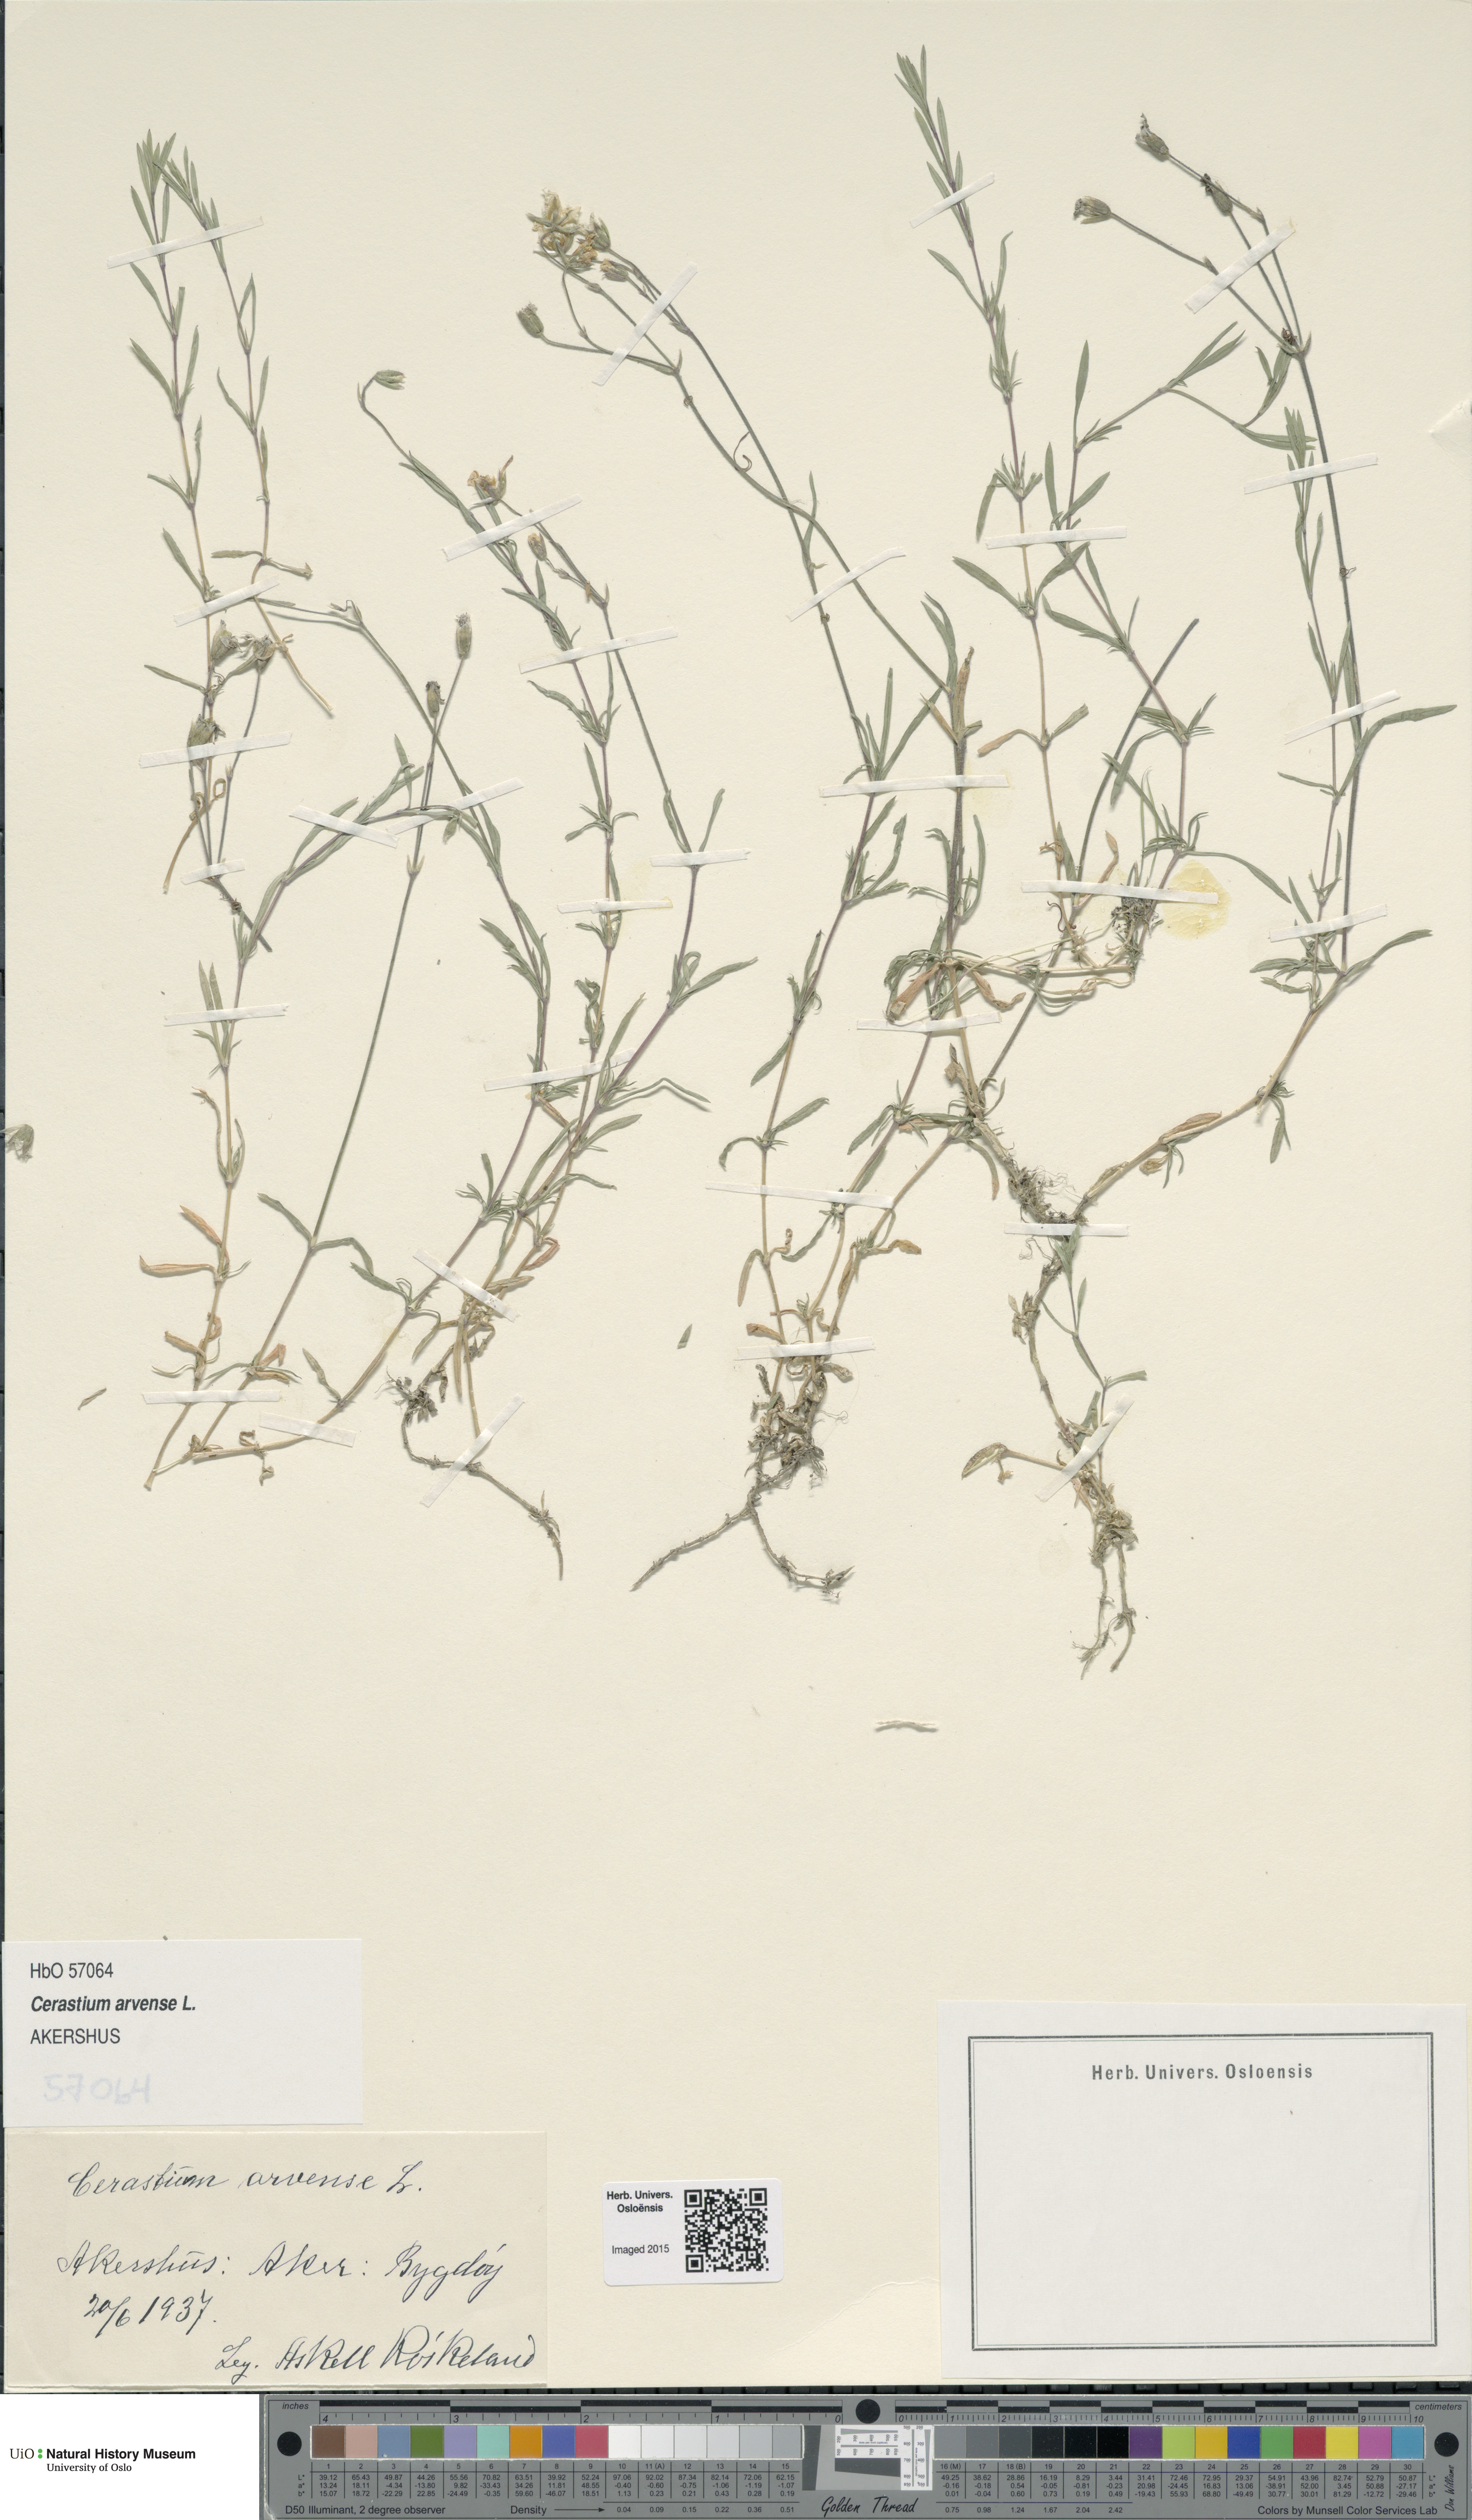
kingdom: Plantae
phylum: Tracheophyta
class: Magnoliopsida
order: Caryophyllales
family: Caryophyllaceae
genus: Cerastium
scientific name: Cerastium arvense
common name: Field mouse-ear
